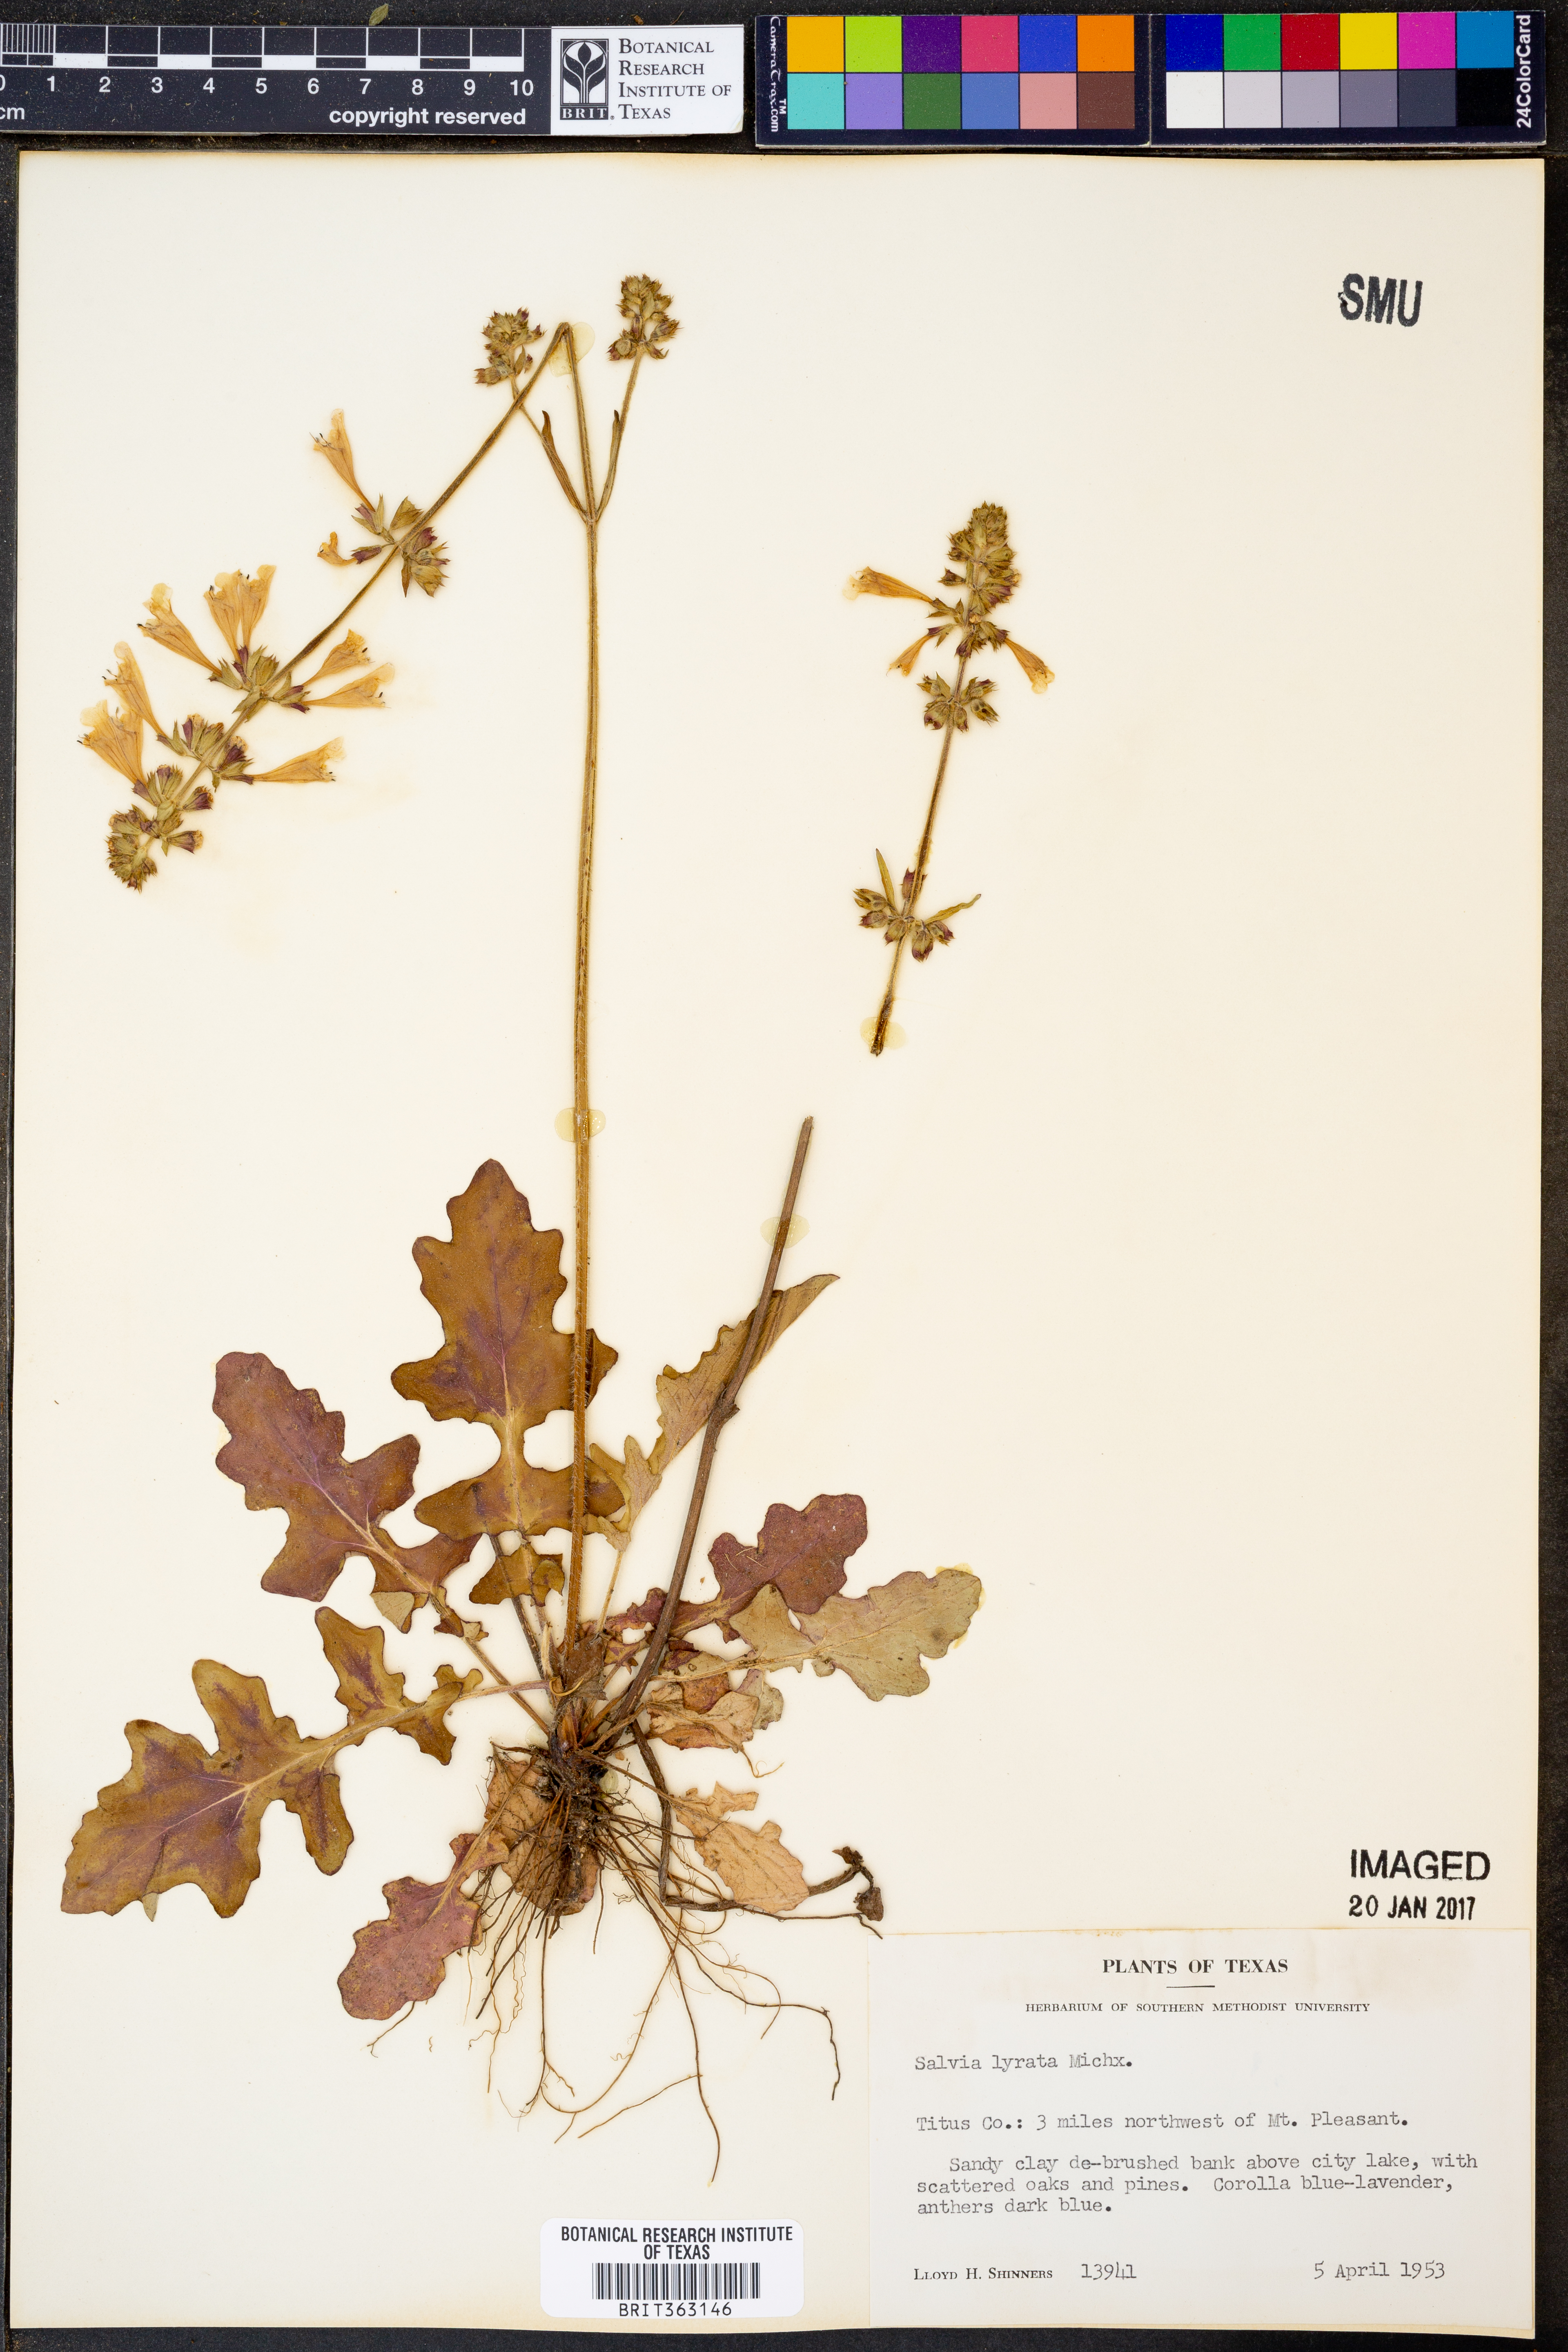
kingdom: Plantae
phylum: Tracheophyta
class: Magnoliopsida
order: Lamiales
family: Lamiaceae
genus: Salvia
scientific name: Salvia lyrata
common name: Cancerweed
